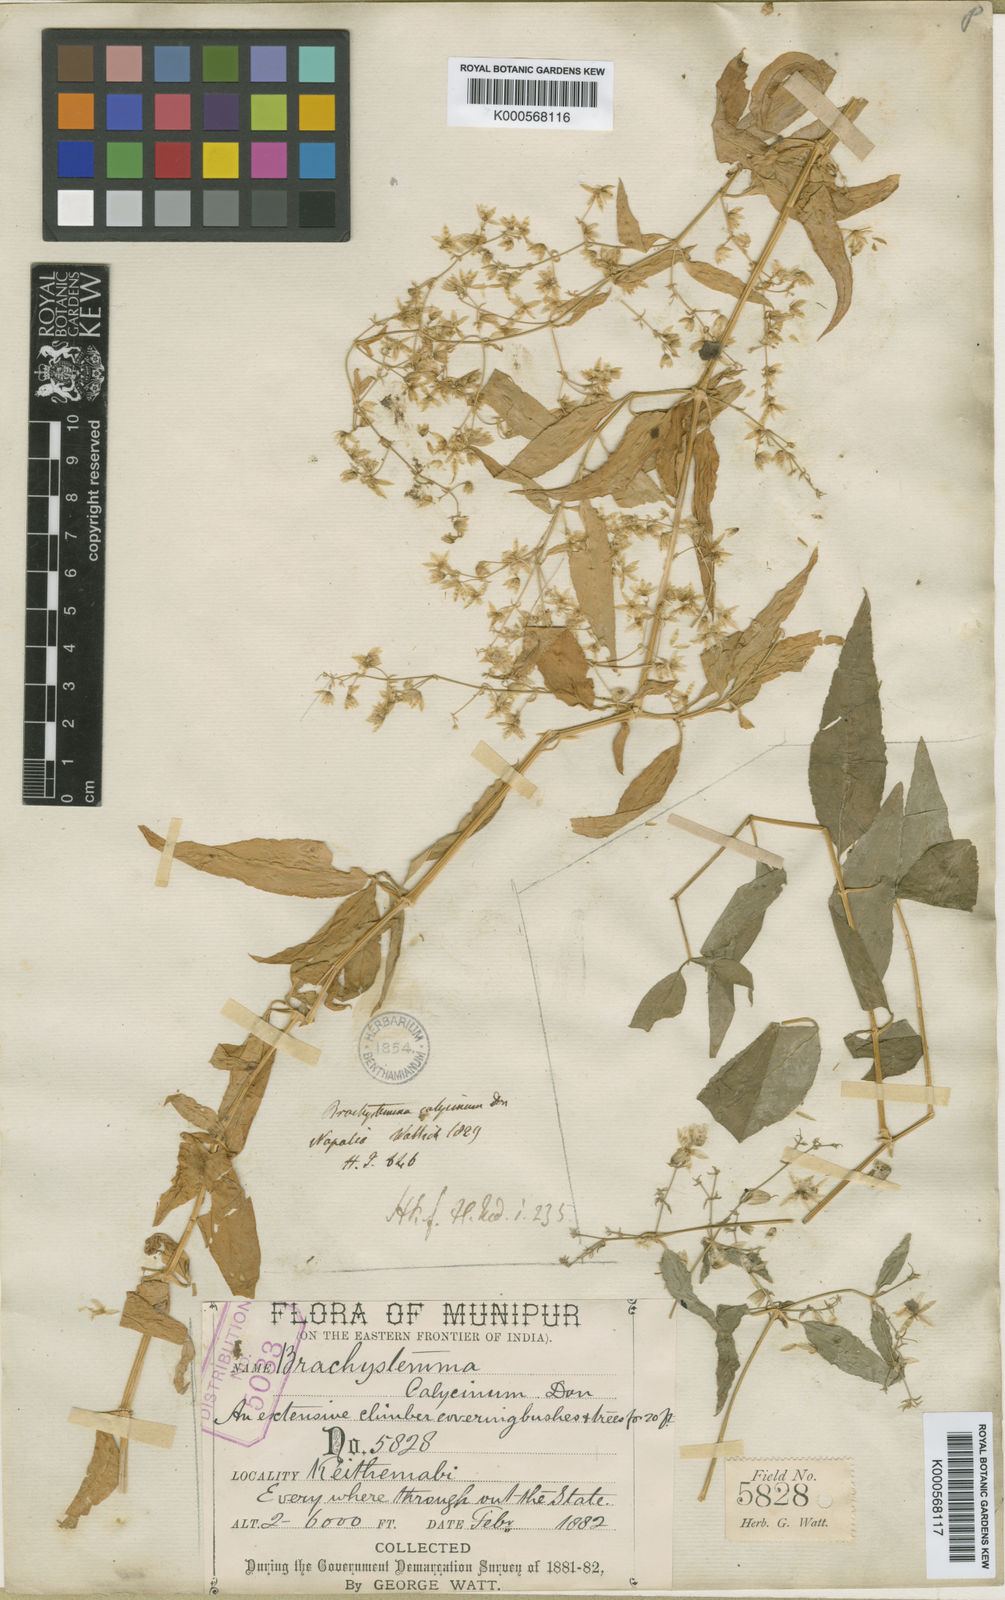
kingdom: Plantae
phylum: Tracheophyta
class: Magnoliopsida
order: Caryophyllales
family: Caryophyllaceae
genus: Brachystemma
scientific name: Brachystemma calycinum
